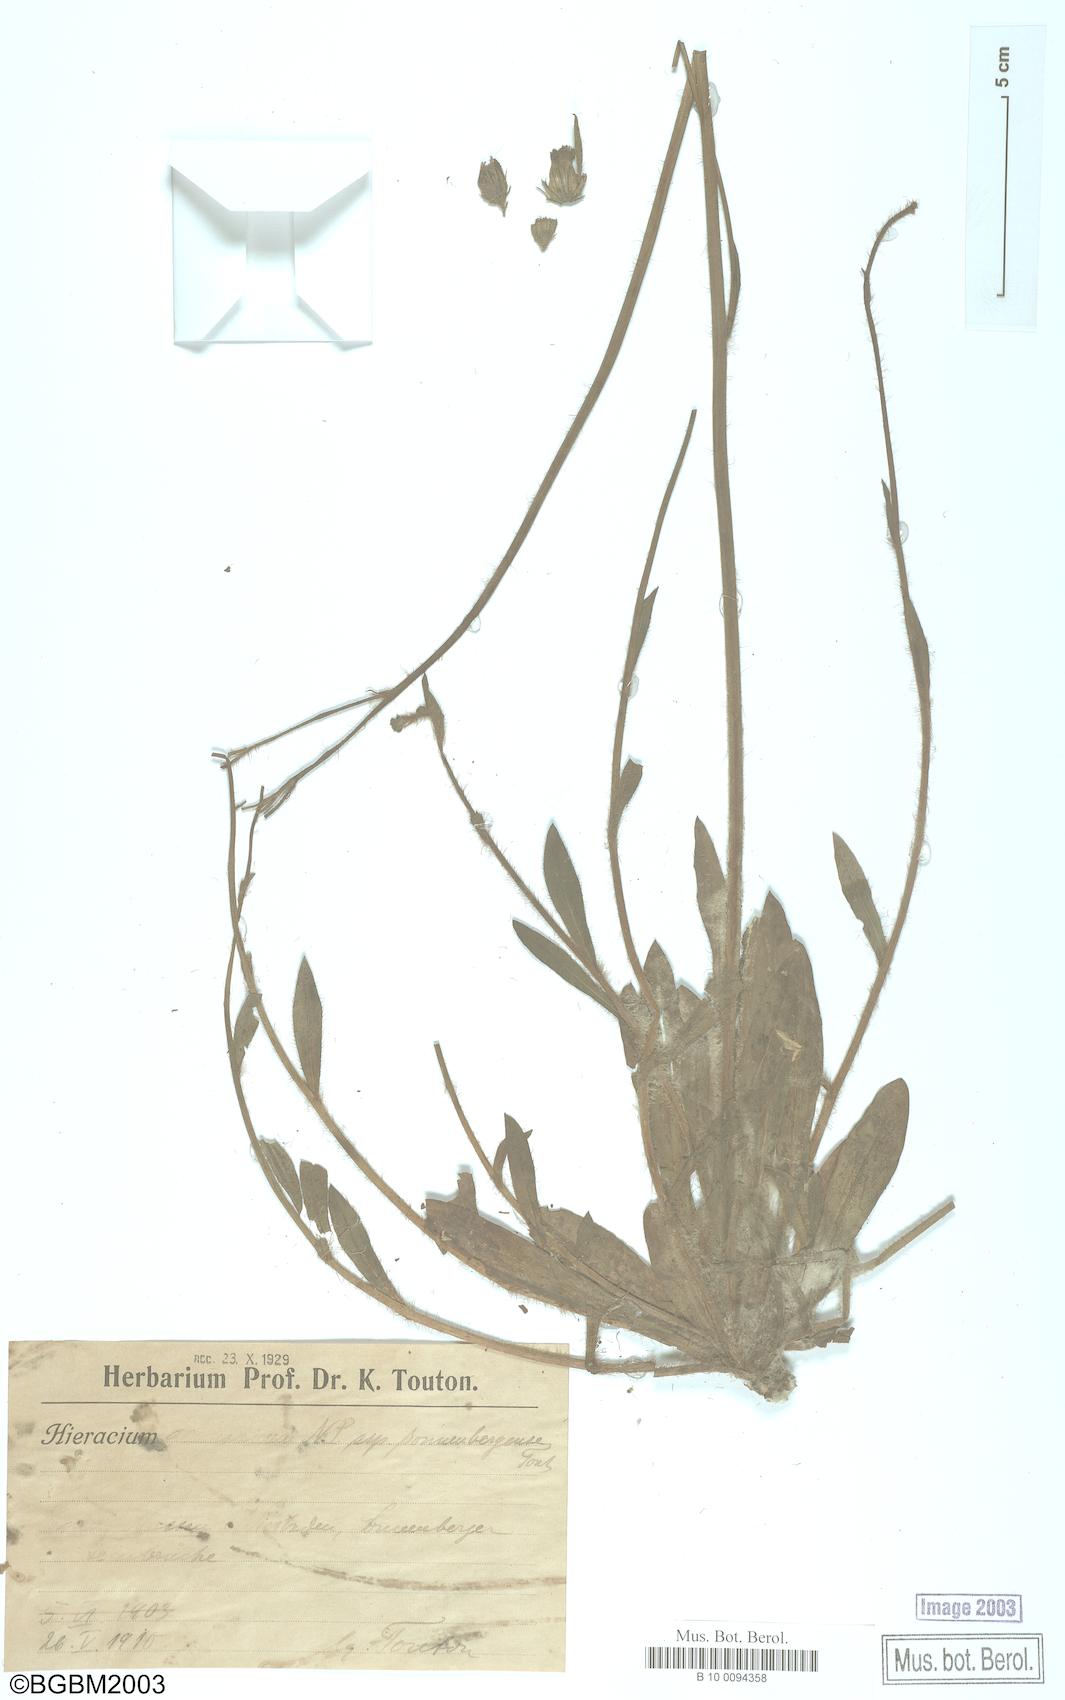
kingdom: Plantae
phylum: Tracheophyta
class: Magnoliopsida
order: Asterales
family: Asteraceae
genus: Pilosella
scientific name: Pilosella anchusoides
